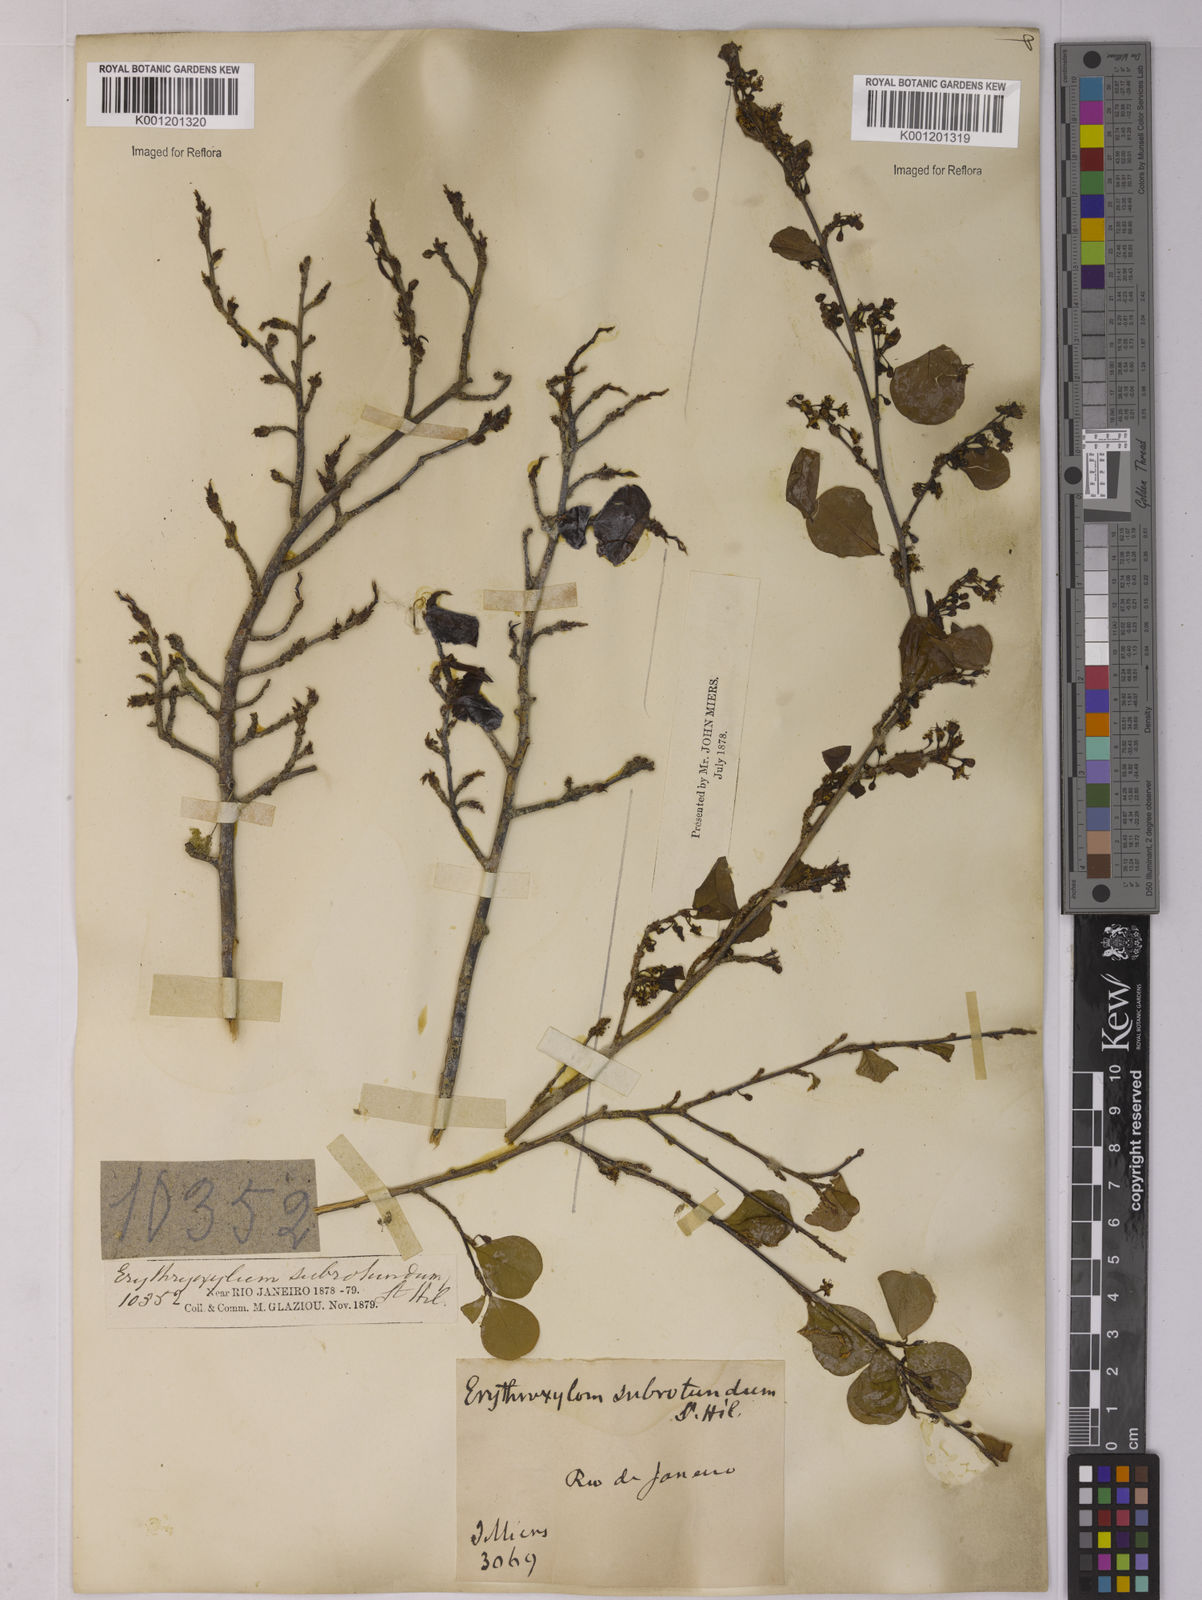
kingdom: Plantae
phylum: Tracheophyta
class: Magnoliopsida
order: Malpighiales
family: Erythroxylaceae
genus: Erythroxylum
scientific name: Erythroxylum subrotundum
